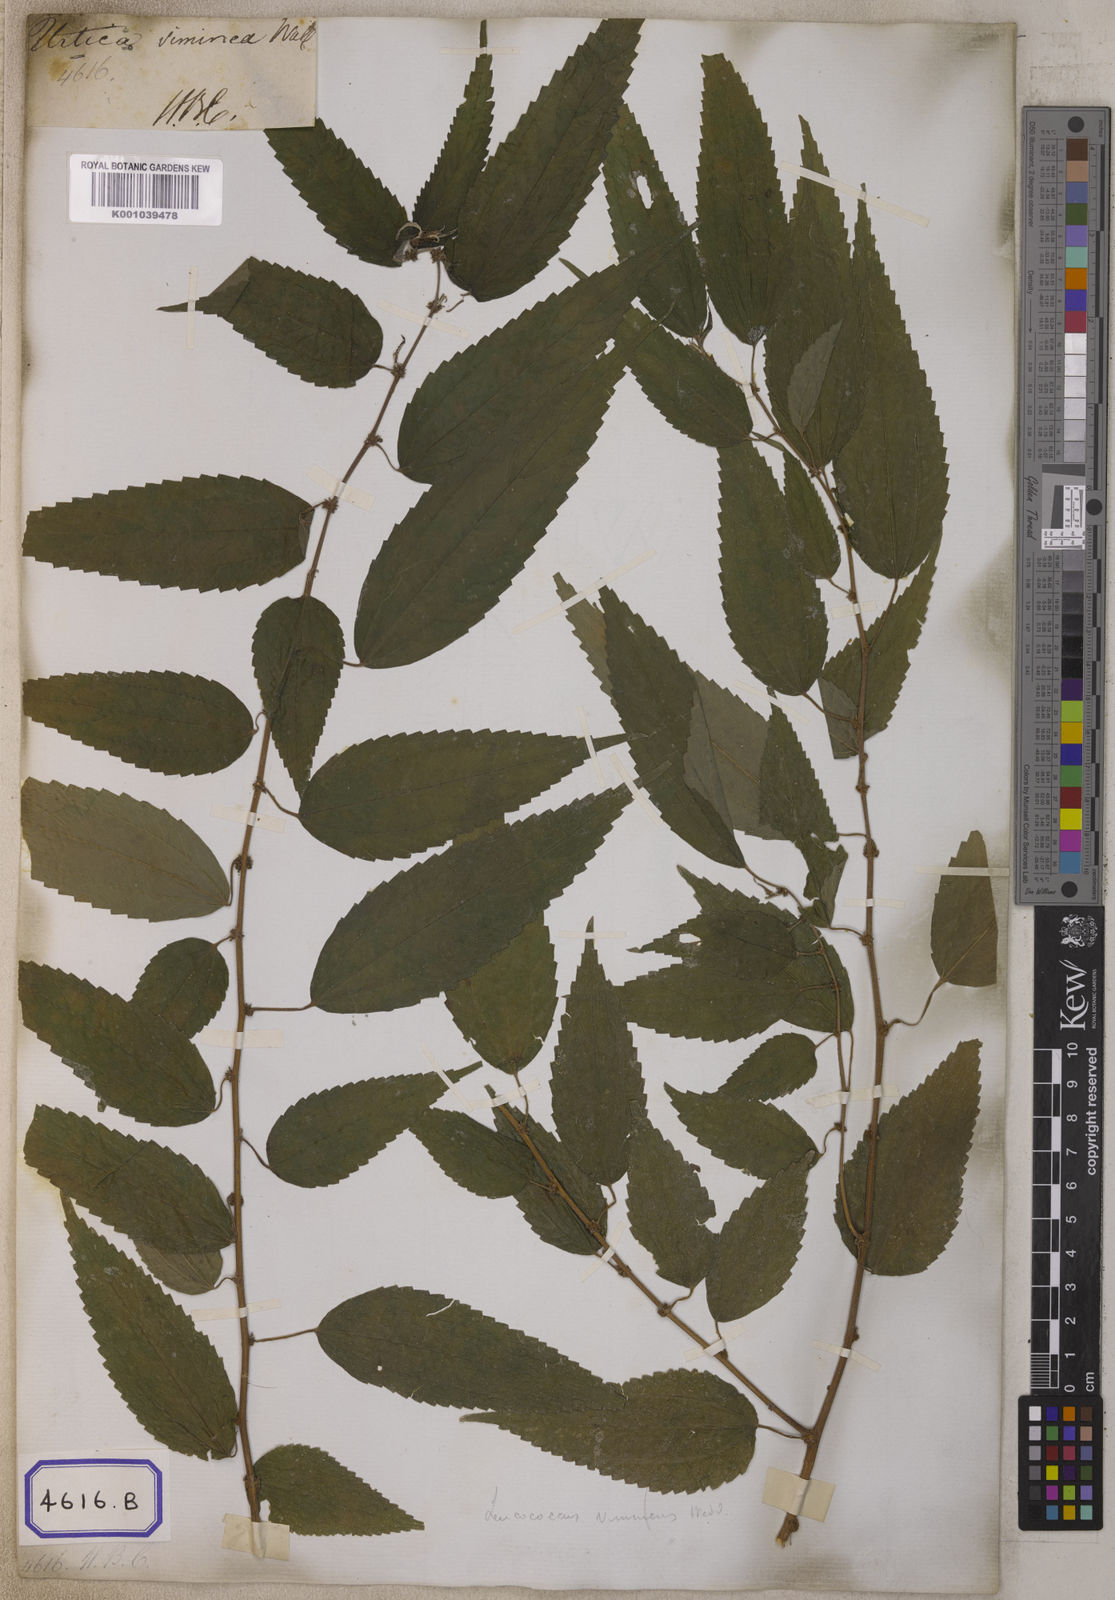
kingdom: Plantae
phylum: Tracheophyta
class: Magnoliopsida
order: Rosales
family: Urticaceae
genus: Pouzolzia
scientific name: Pouzolzia sanguinea
